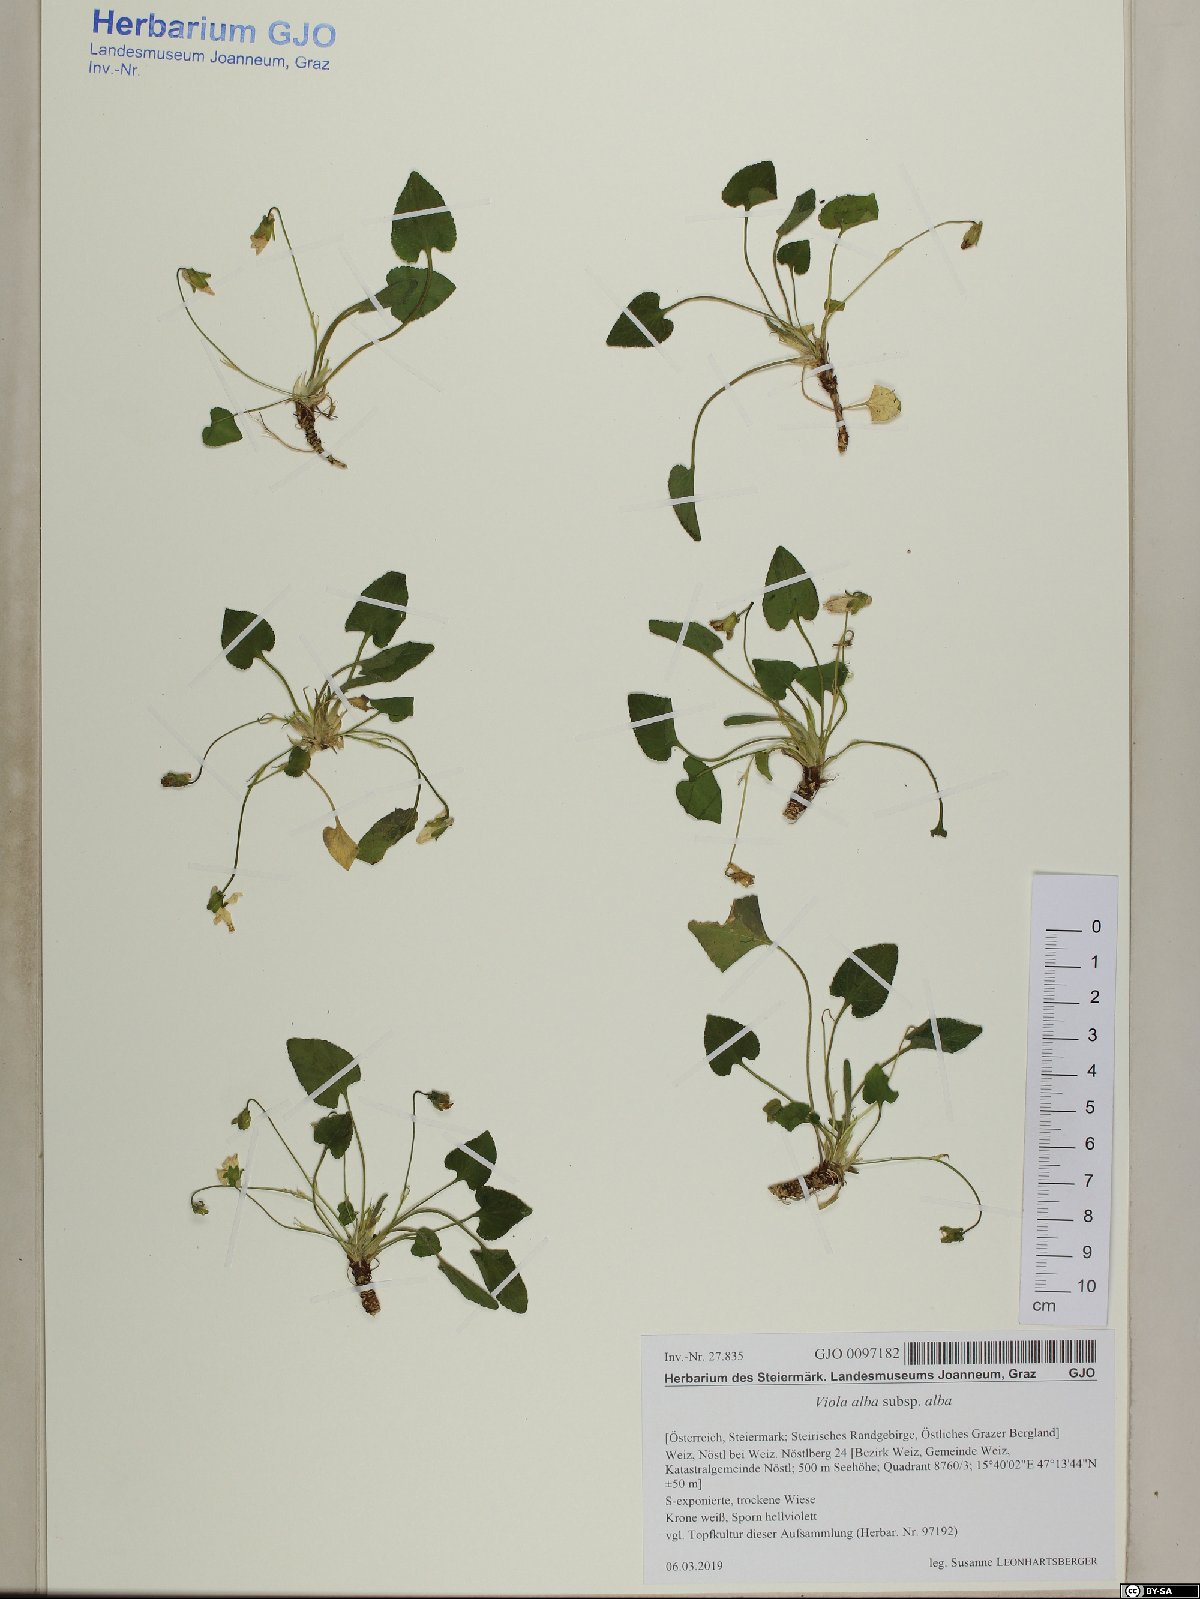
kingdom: Plantae
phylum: Tracheophyta
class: Magnoliopsida
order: Malpighiales
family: Violaceae
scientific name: Violaceae
